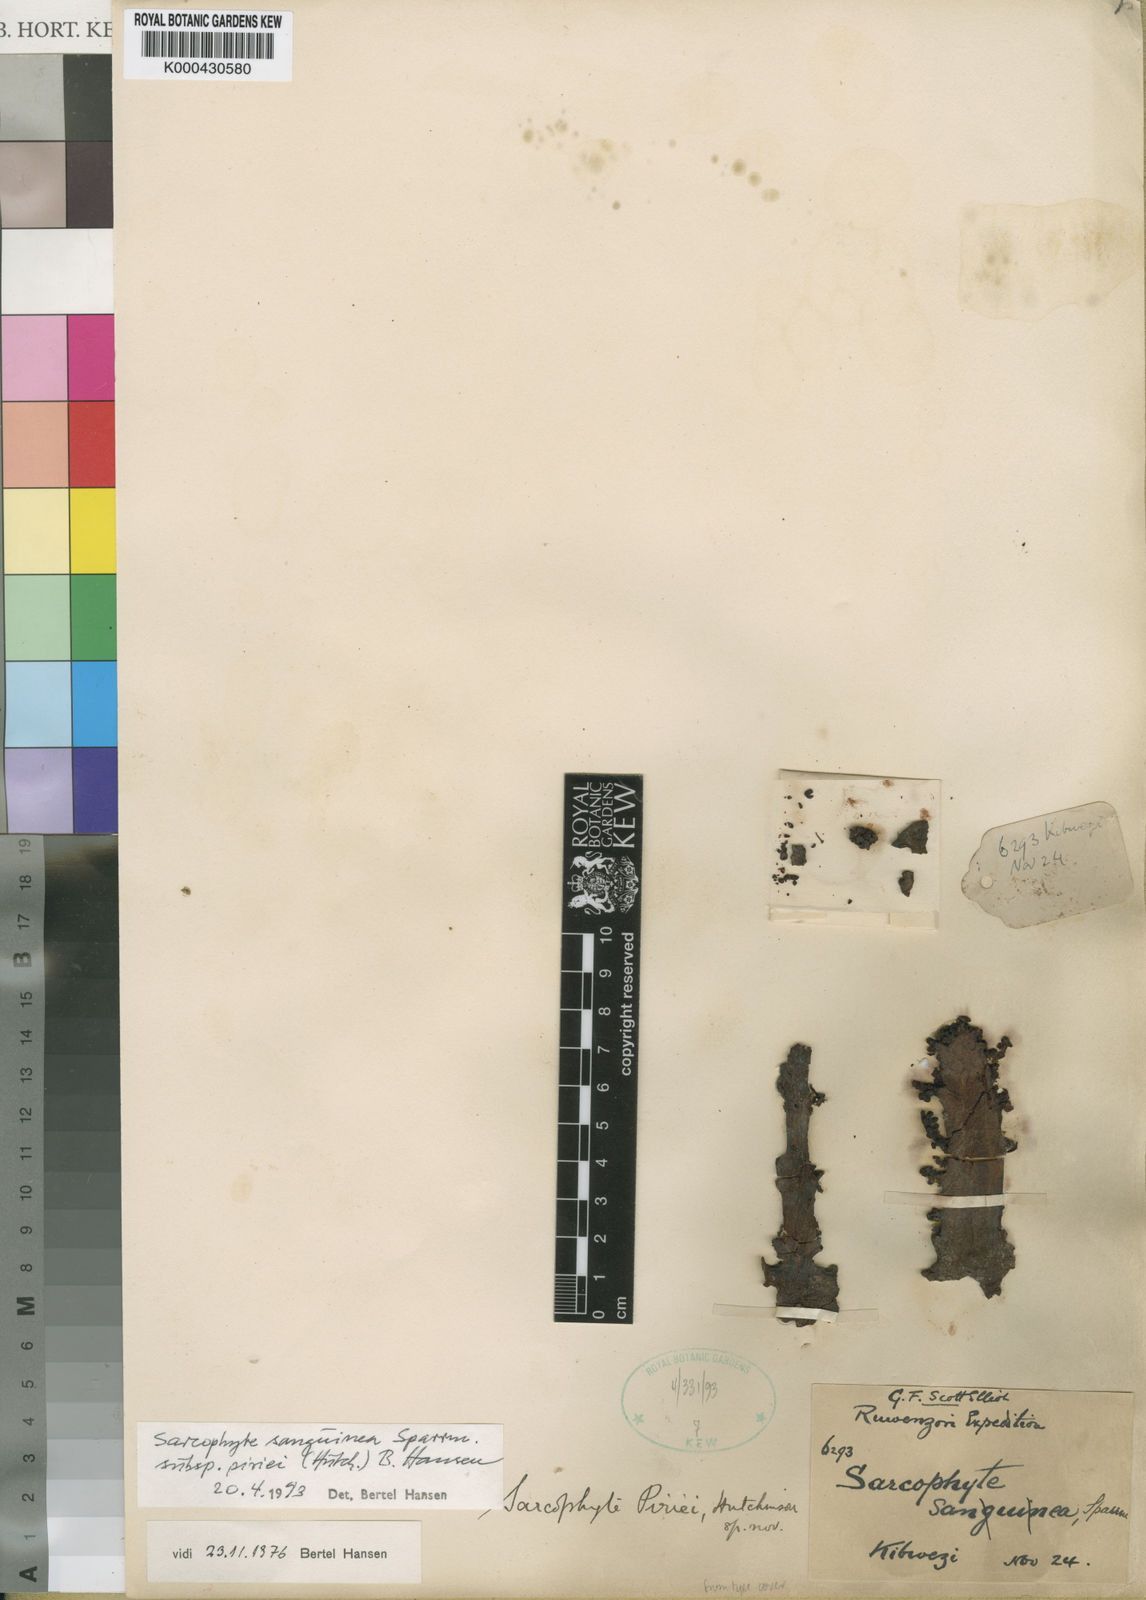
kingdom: Plantae
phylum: Tracheophyta
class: Magnoliopsida
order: Santalales
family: Balanophoraceae
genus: Sarcophyte
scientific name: Sarcophyte piriei
